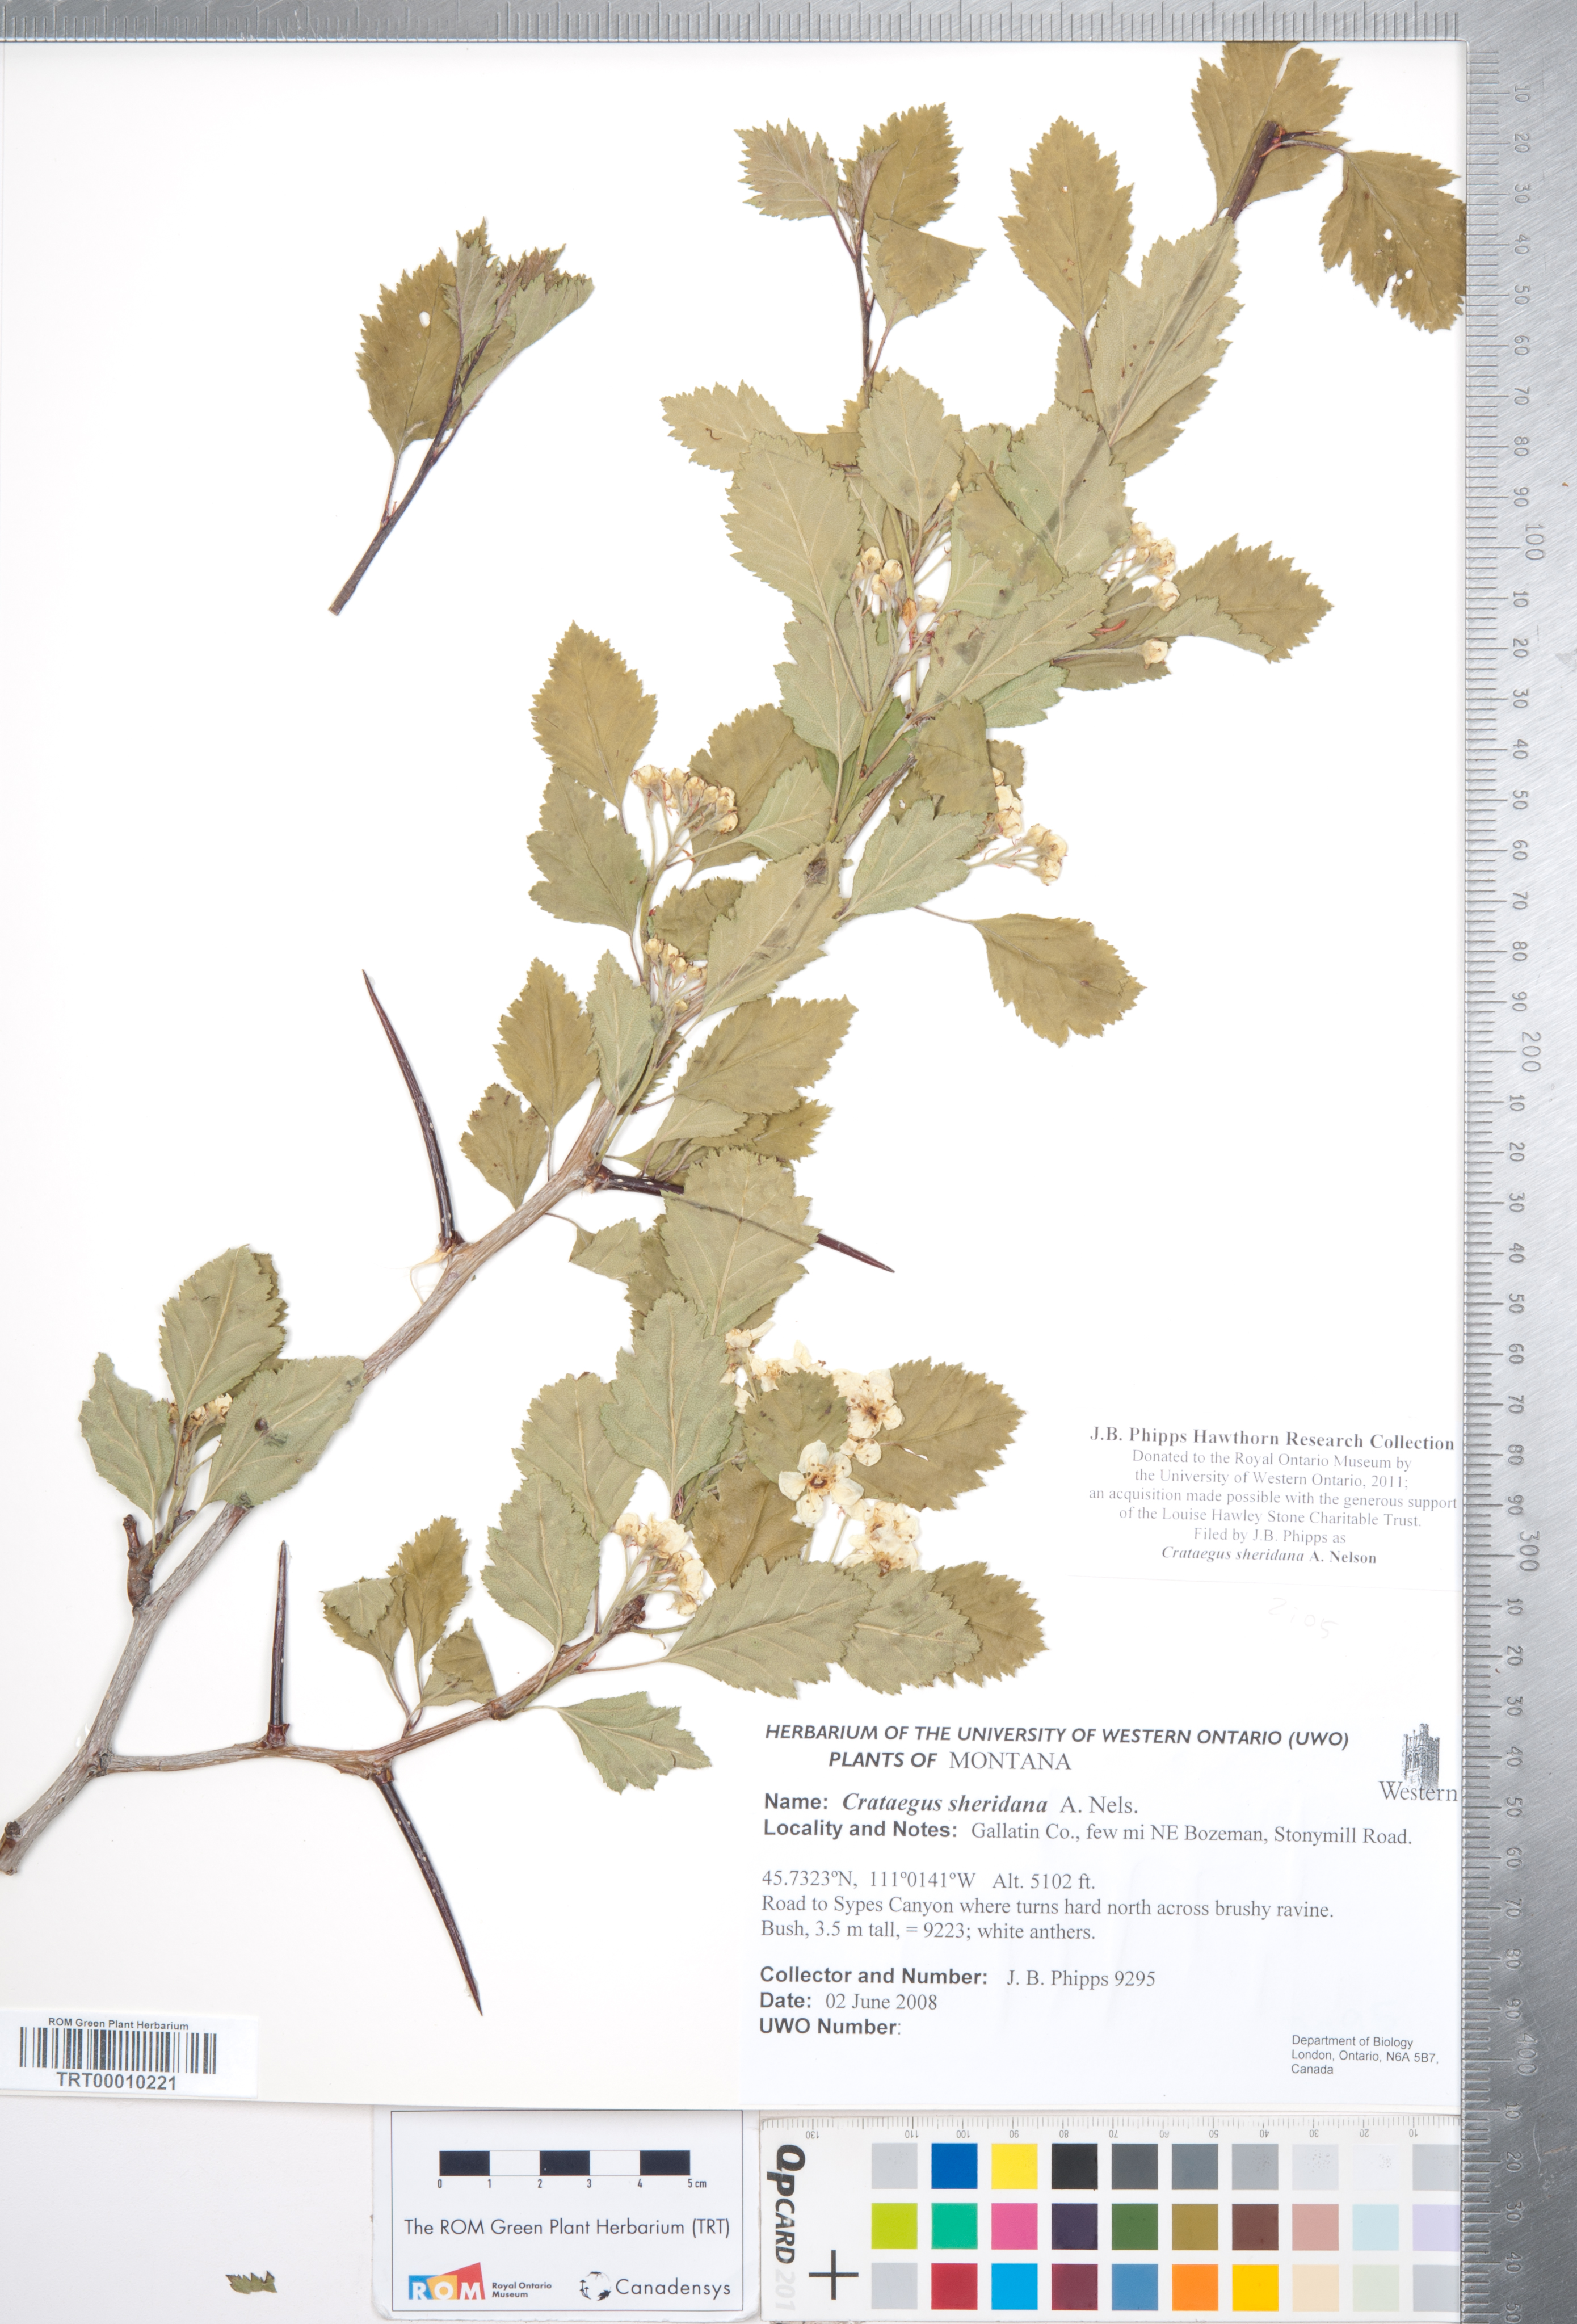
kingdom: Plantae
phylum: Tracheophyta
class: Magnoliopsida
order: Rosales
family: Rosaceae
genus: Crataegus
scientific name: Crataegus chrysocarpa
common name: Fire-berry hawthorn
